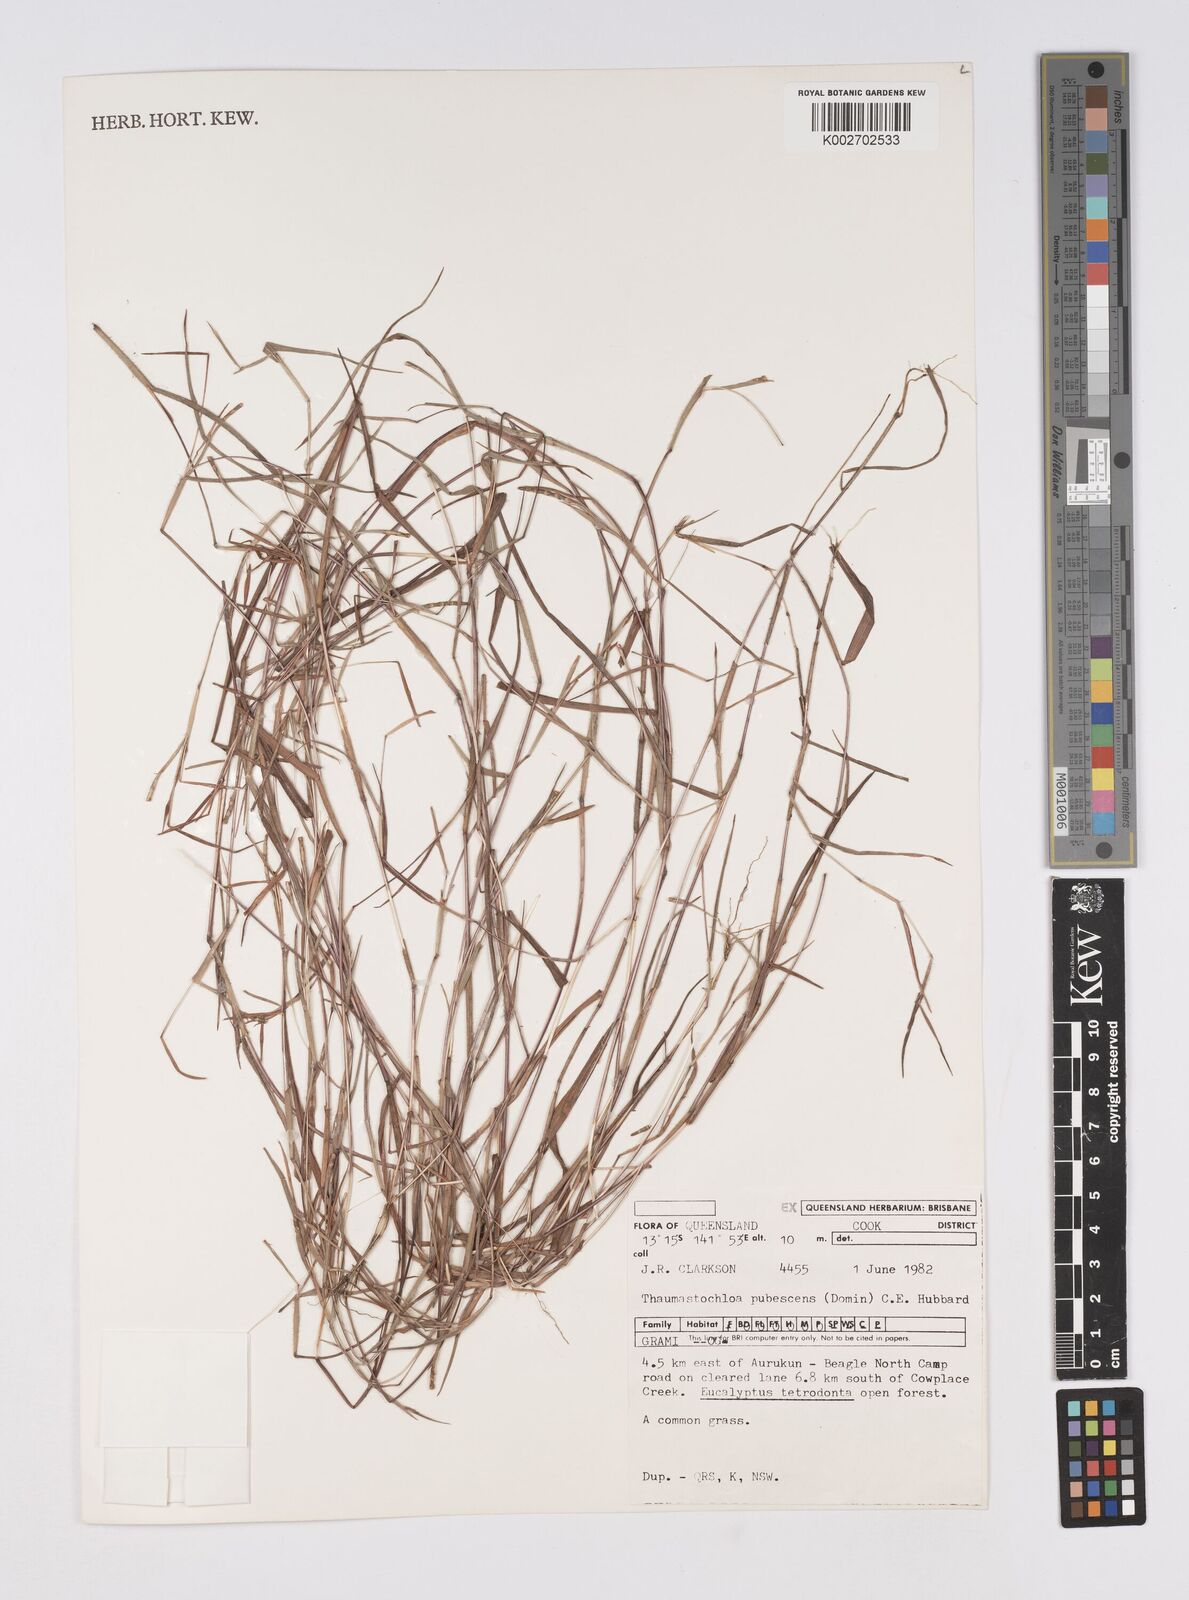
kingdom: Plantae
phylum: Tracheophyta
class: Liliopsida
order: Poales
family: Poaceae
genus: Thaumastochloa
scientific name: Thaumastochloa pubescens
